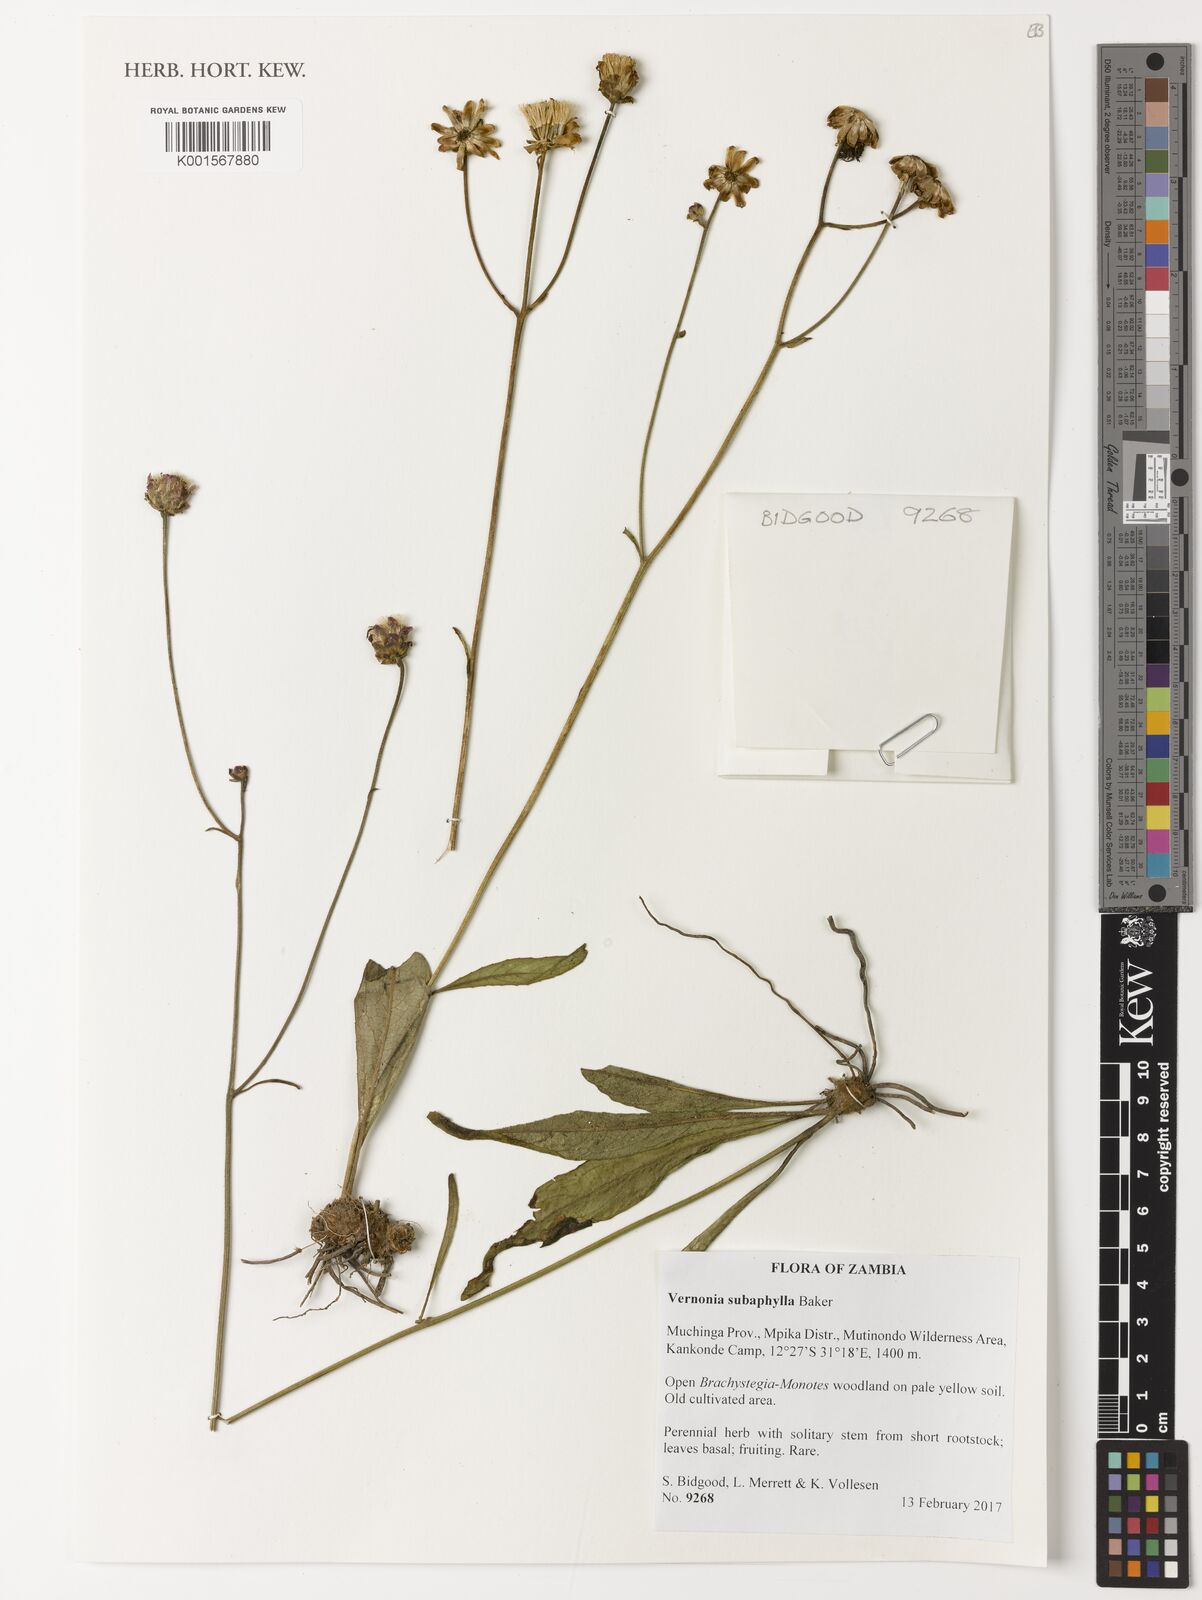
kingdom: Plantae
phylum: Tracheophyta
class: Magnoliopsida
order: Asterales
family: Asteraceae
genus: Vernonella
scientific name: Vernonella subaphylla
